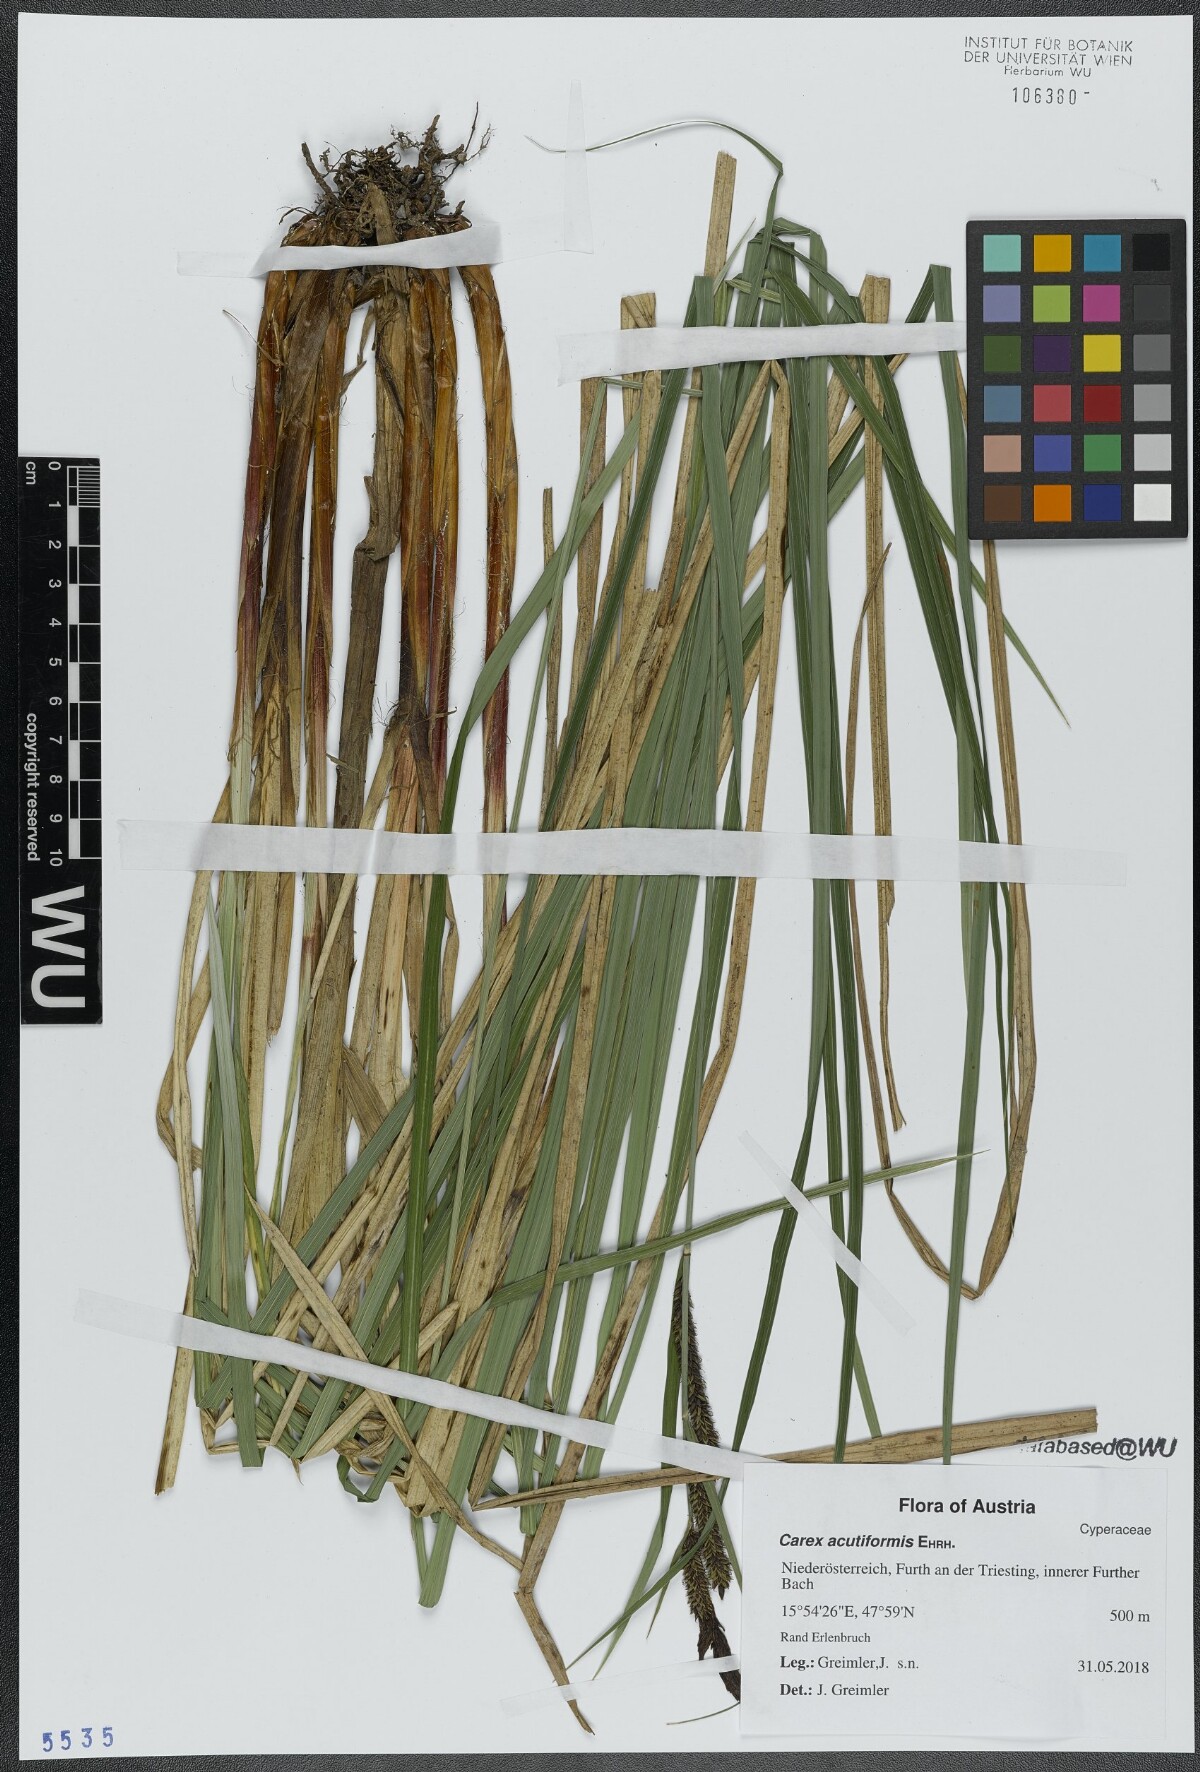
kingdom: Plantae
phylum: Tracheophyta
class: Liliopsida
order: Poales
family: Cyperaceae
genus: Carex
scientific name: Carex acutiformis
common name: Lesser pond-sedge
